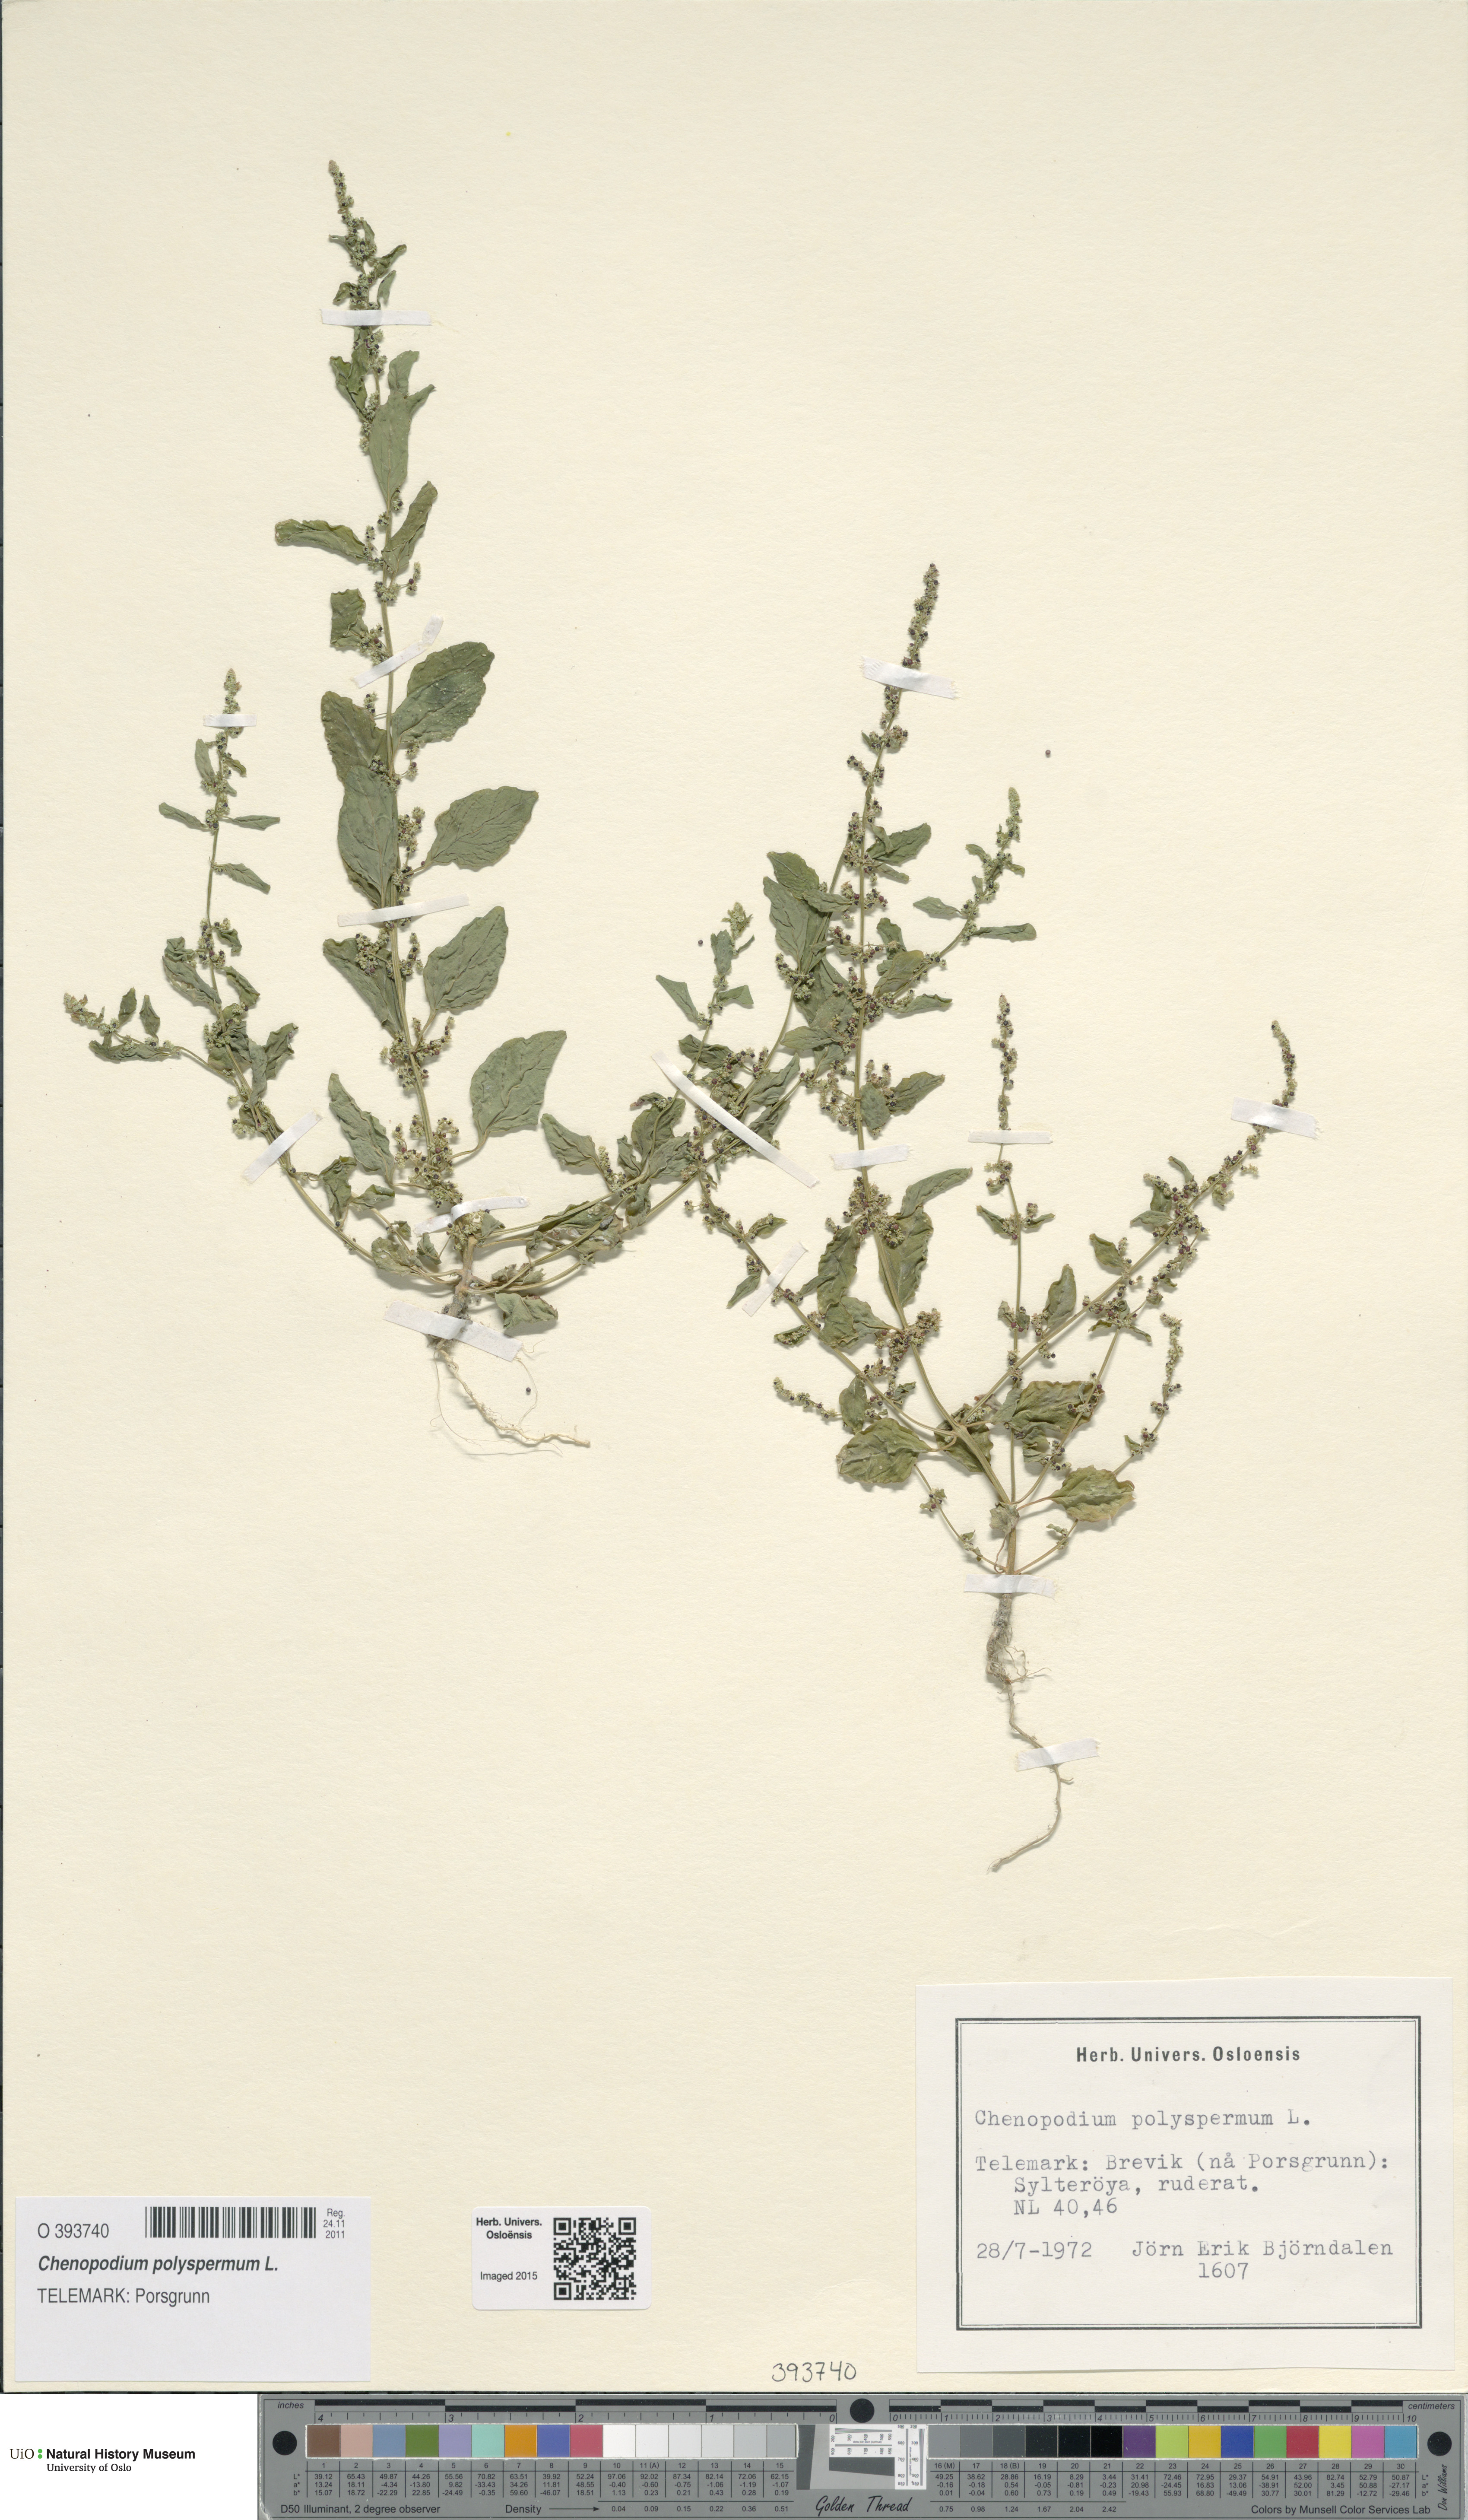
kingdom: Plantae
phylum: Tracheophyta
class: Magnoliopsida
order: Caryophyllales
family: Amaranthaceae
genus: Lipandra
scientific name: Lipandra polysperma
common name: Many-seed goosefoot
